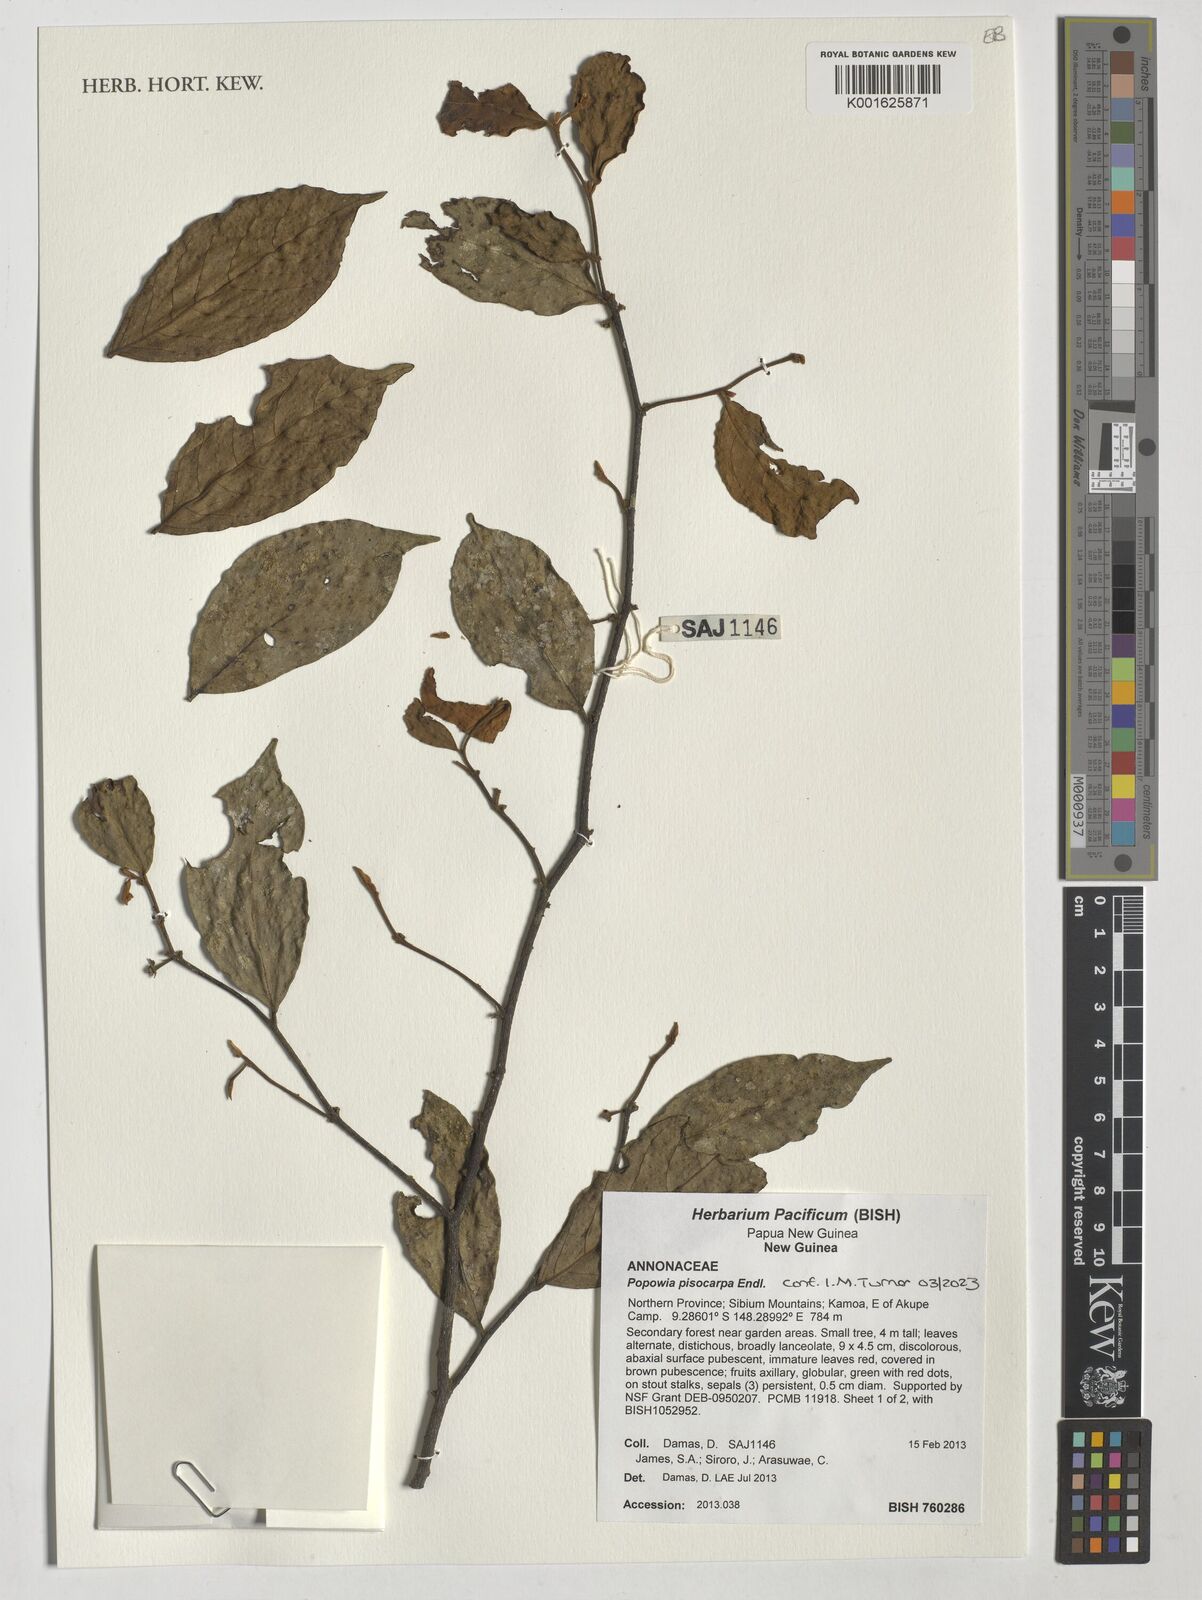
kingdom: Plantae
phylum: Tracheophyta
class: Magnoliopsida
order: Magnoliales
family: Annonaceae
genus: Popowia
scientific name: Popowia pisocarpa
